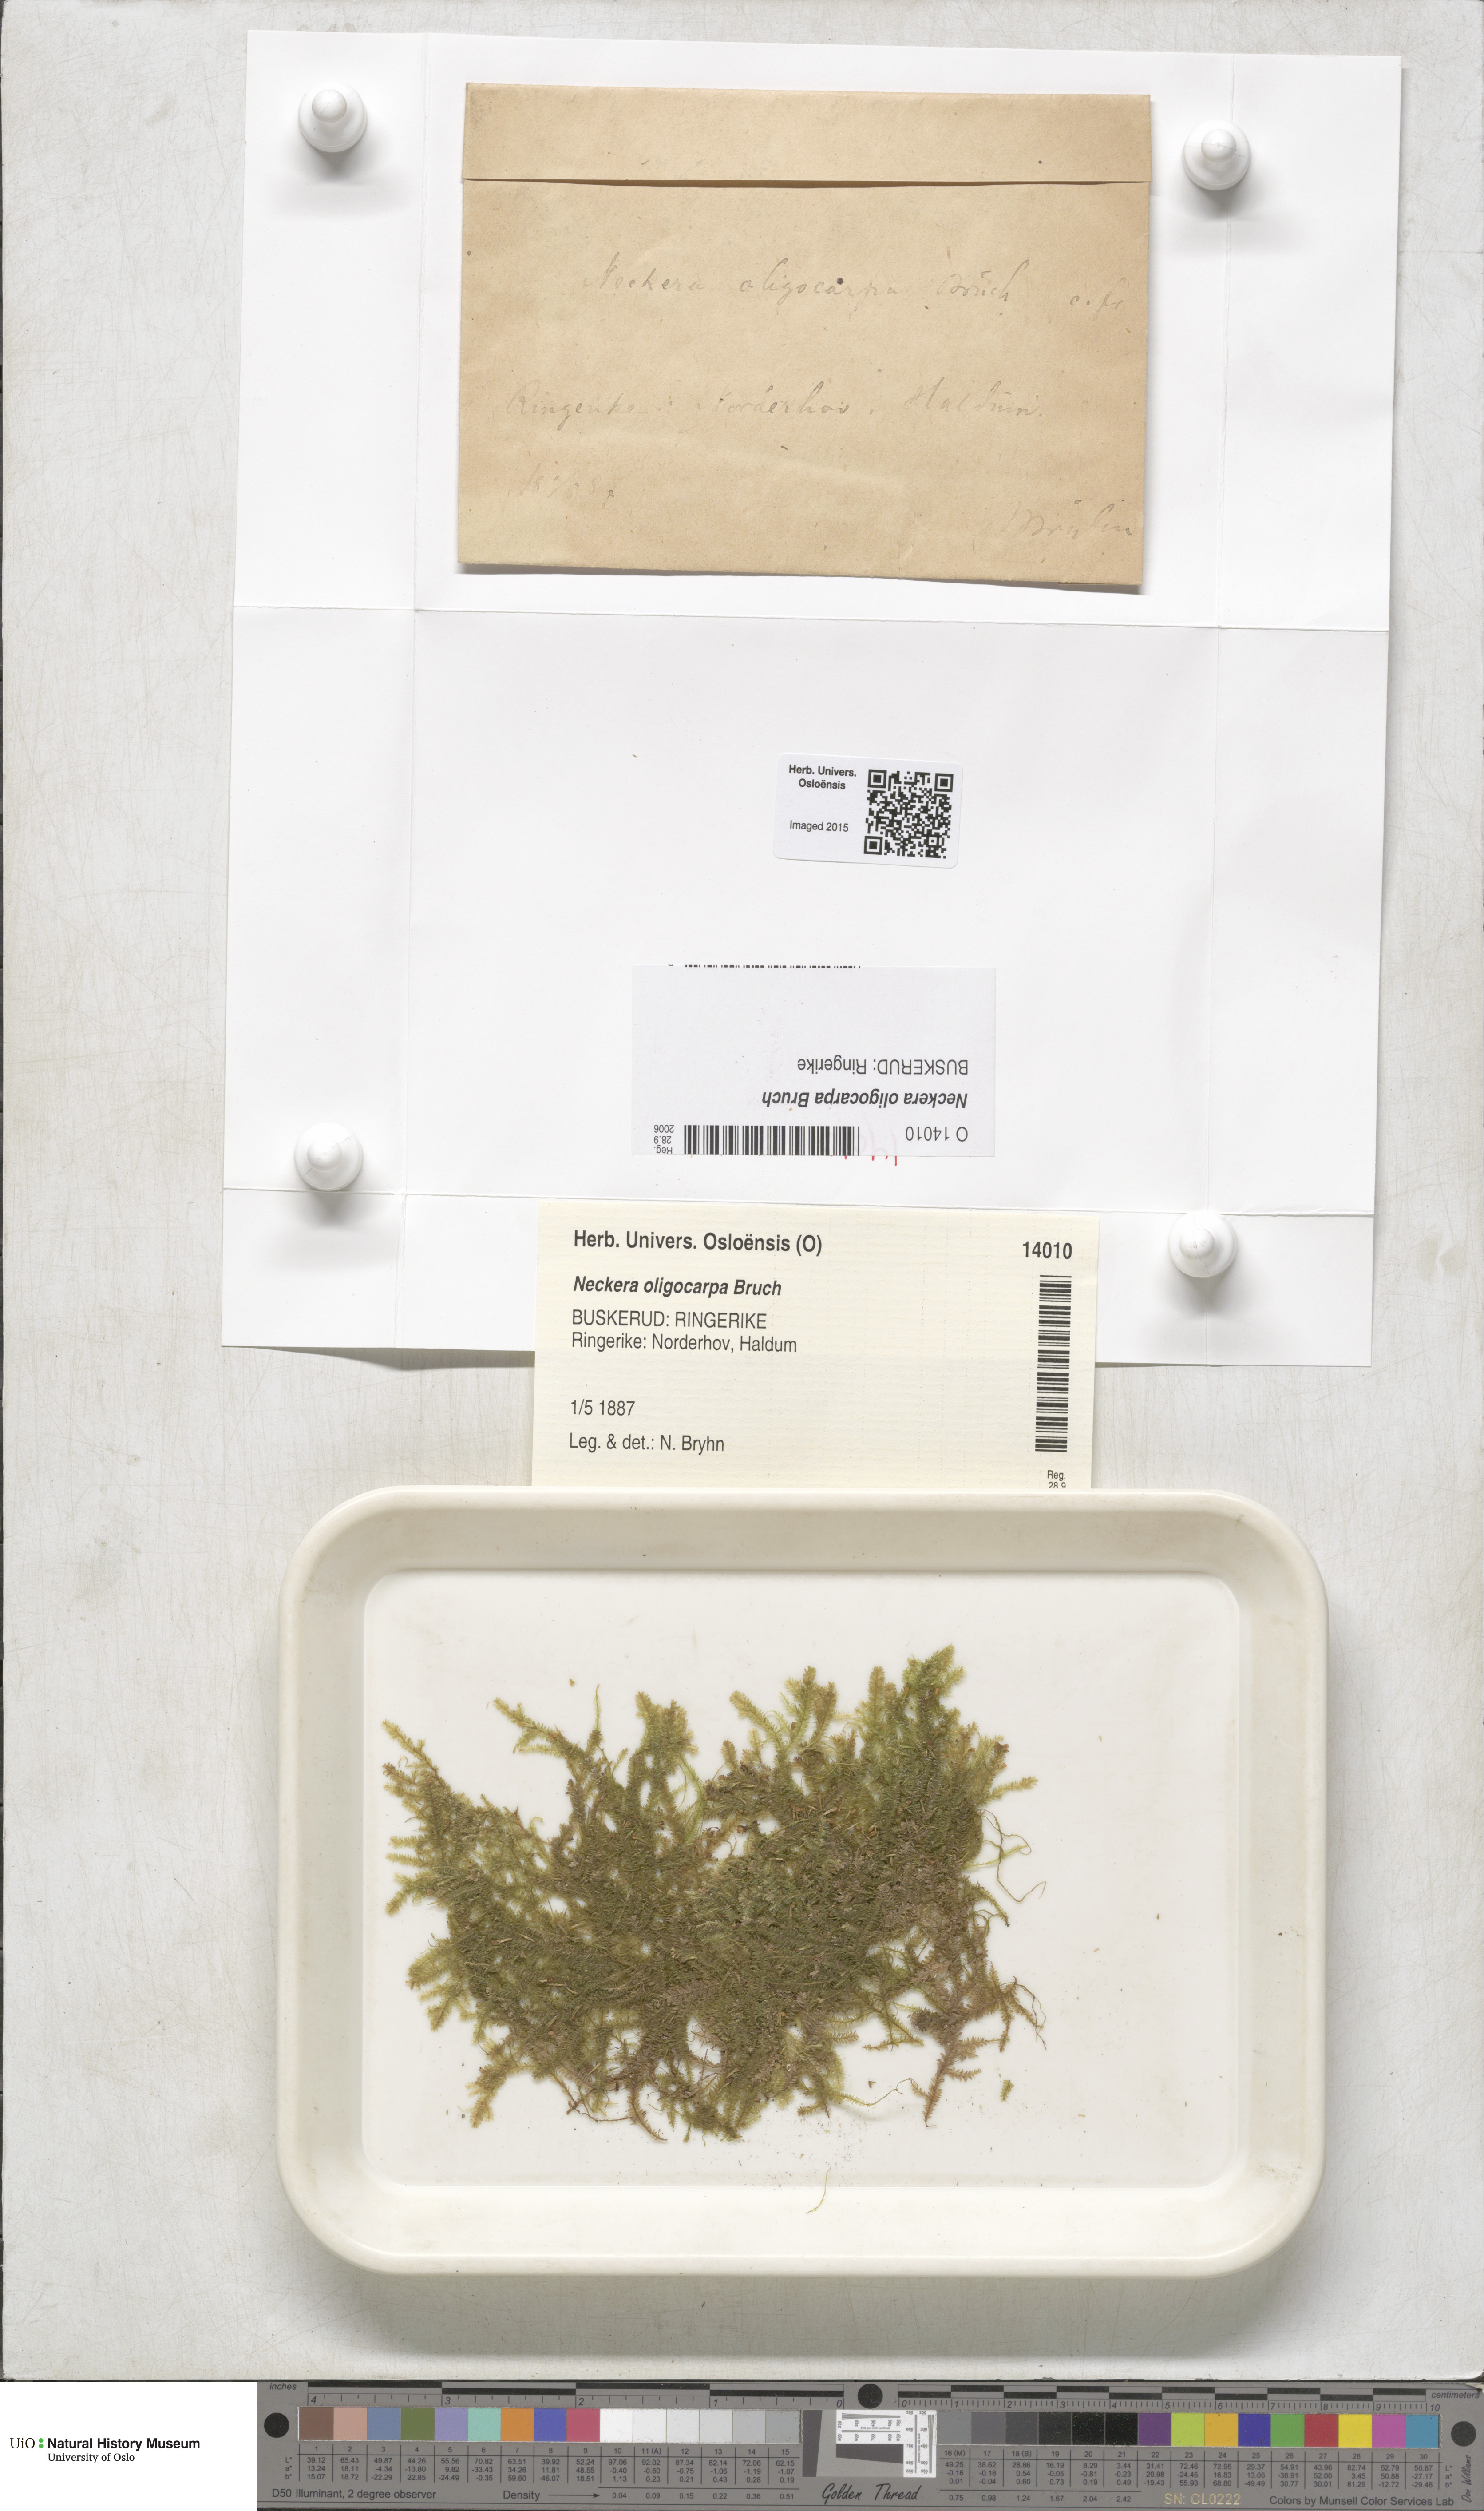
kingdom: Plantae
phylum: Bryophyta
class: Bryopsida
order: Hypnales
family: Neckeraceae
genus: Neckera
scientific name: Neckera oligocarpa
